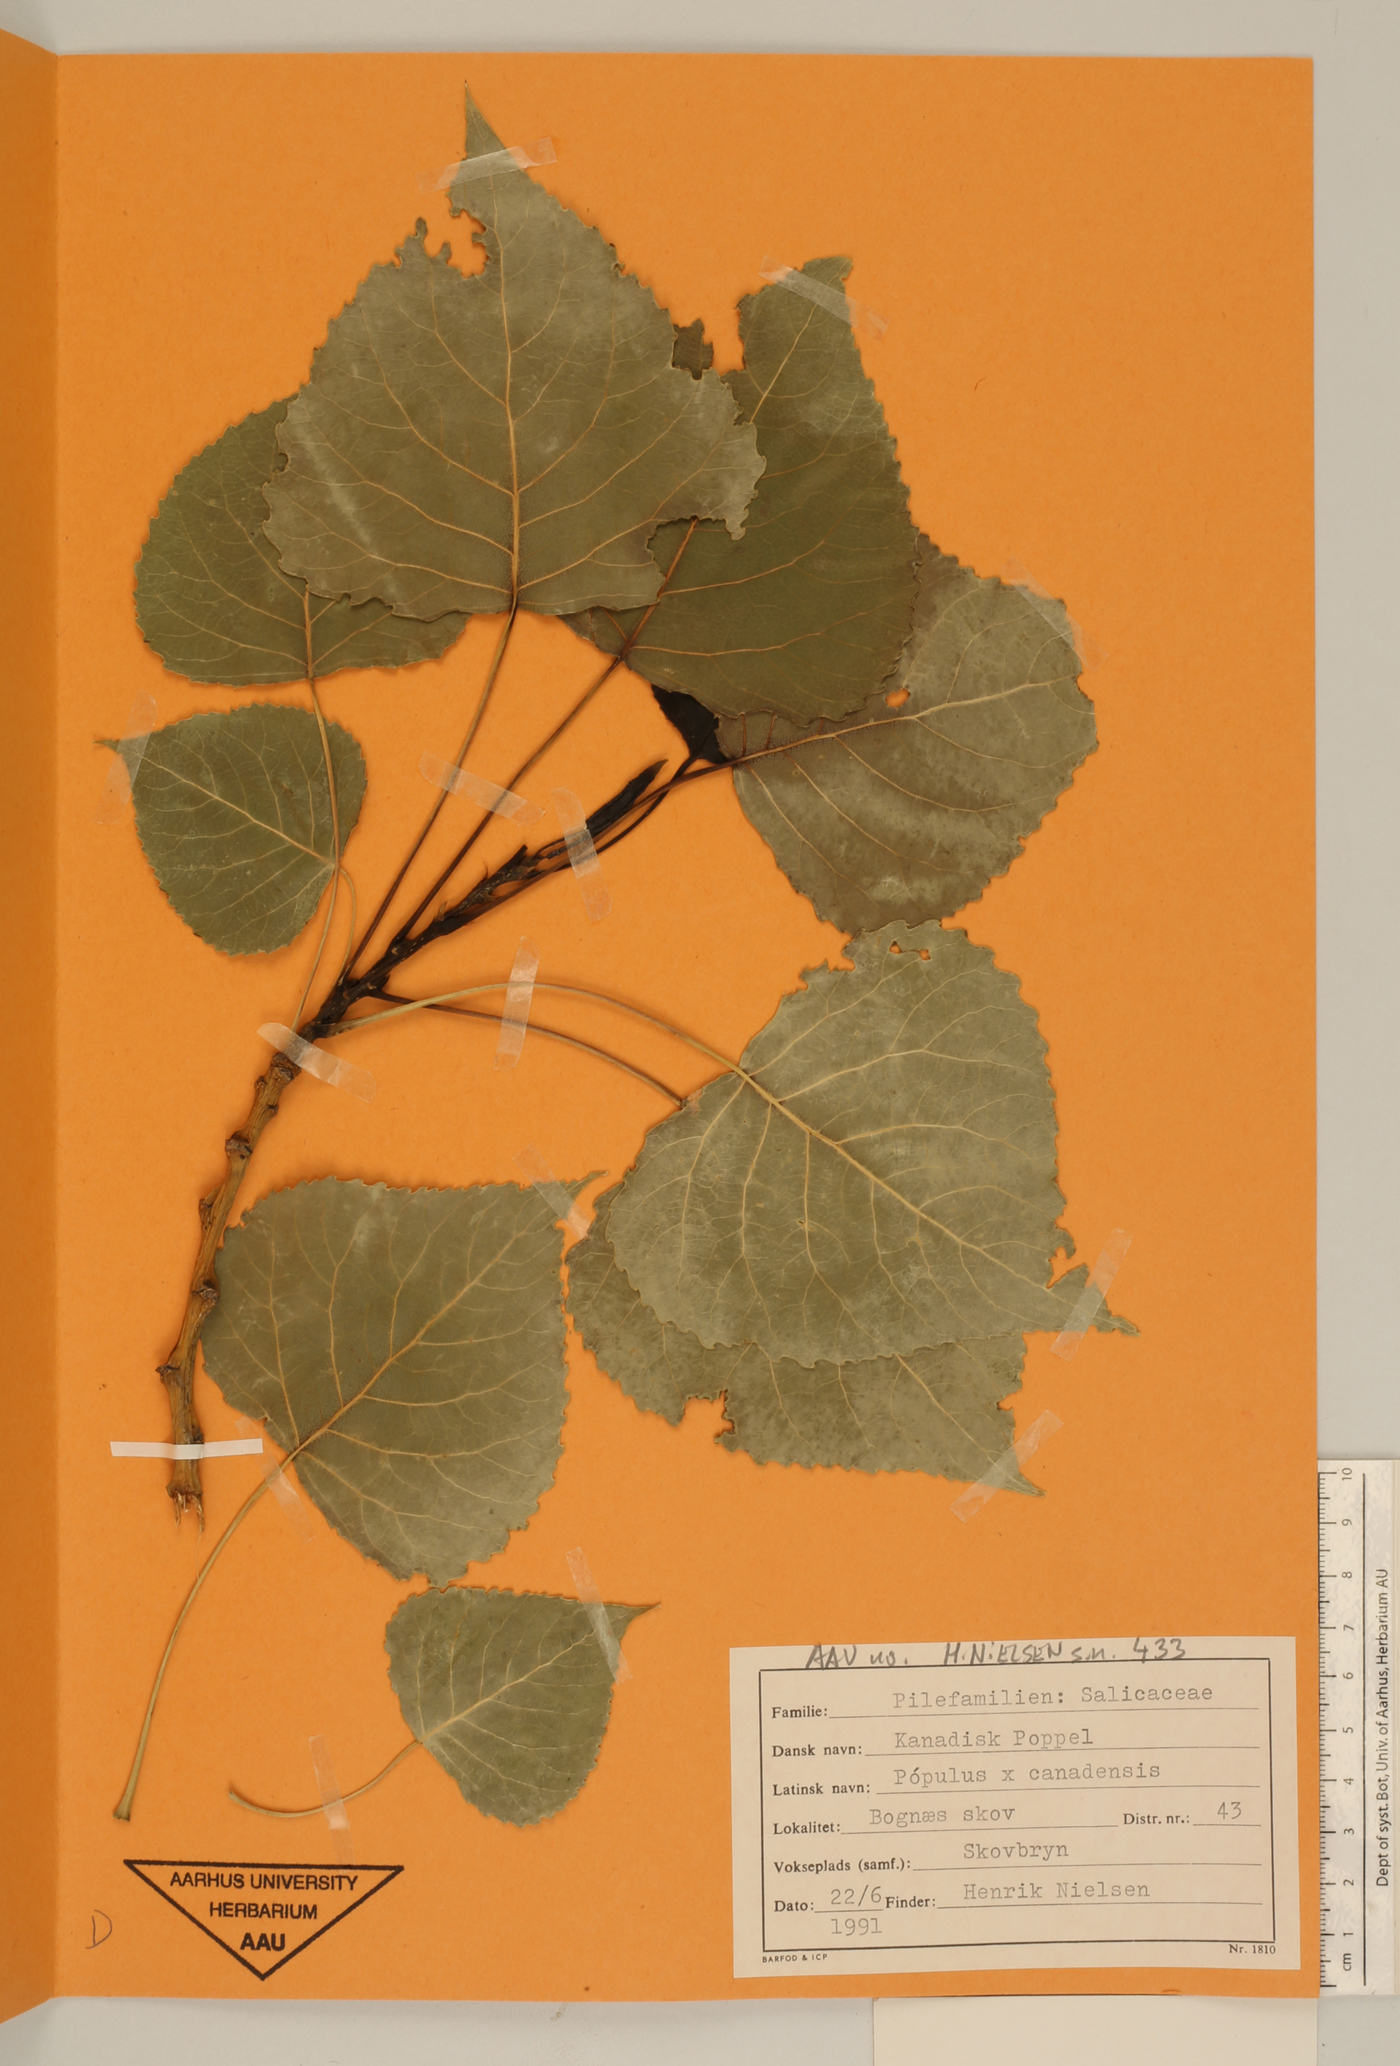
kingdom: Plantae
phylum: Tracheophyta
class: Magnoliopsida
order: Malpighiales
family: Salicaceae
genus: Populus
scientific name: Populus canadensis
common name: Carolina poplar
